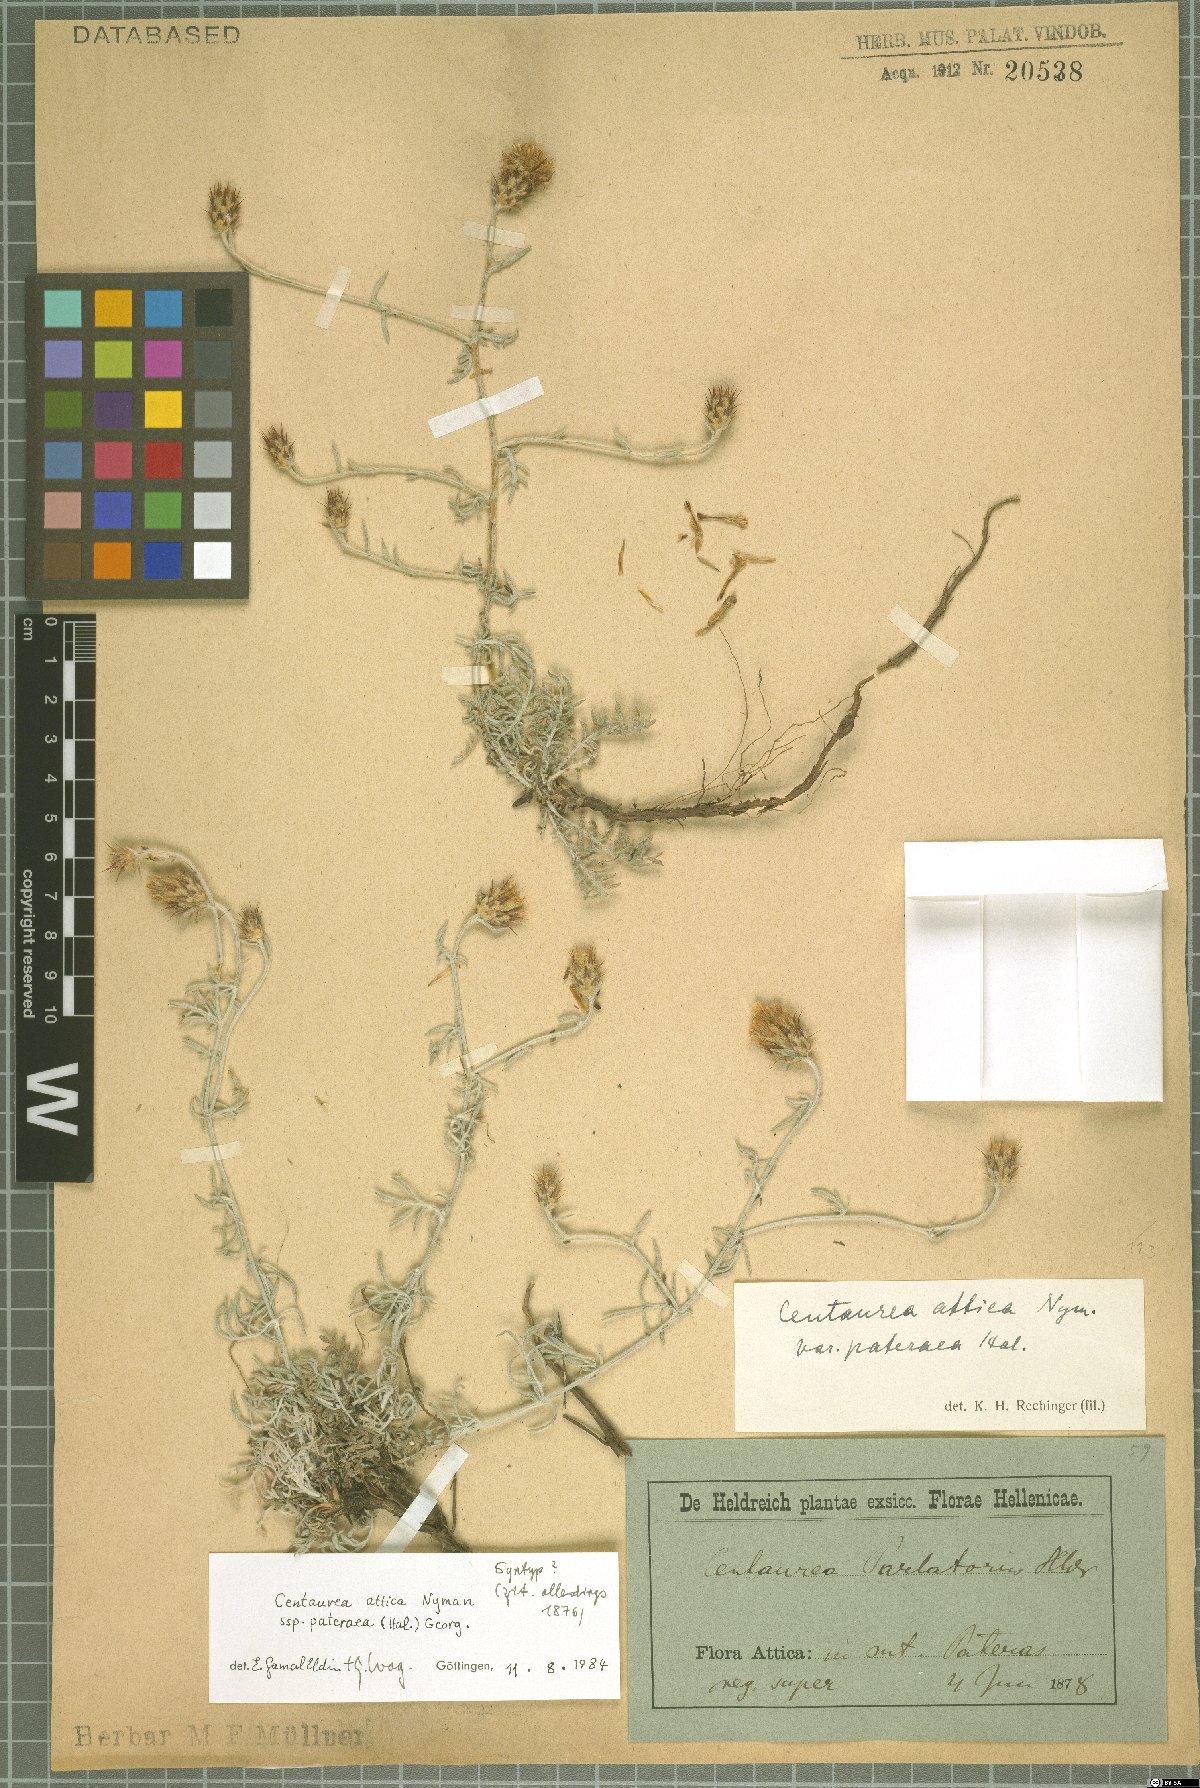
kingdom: Plantae
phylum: Tracheophyta
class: Magnoliopsida
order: Asterales
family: Asteraceae
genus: Centaurea
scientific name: Centaurea subsericans
